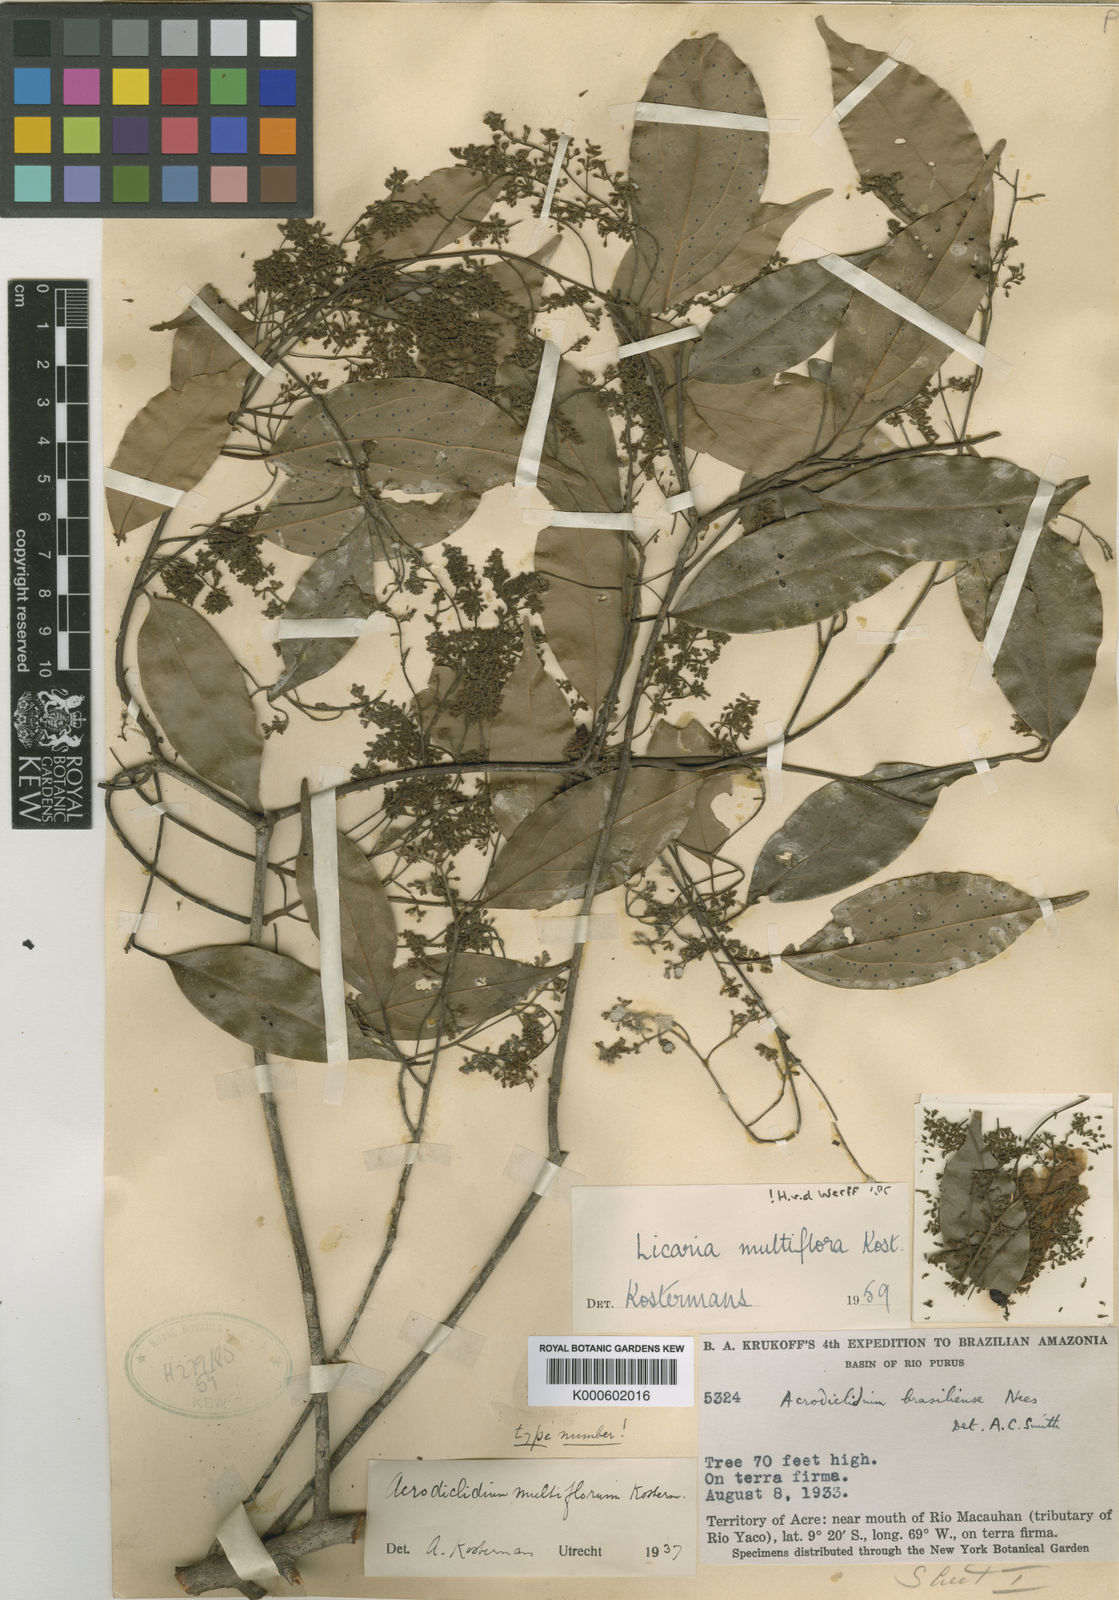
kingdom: Plantae
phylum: Tracheophyta
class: Magnoliopsida
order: Laurales
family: Lauraceae
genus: Licaria
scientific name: Licaria multiflora
